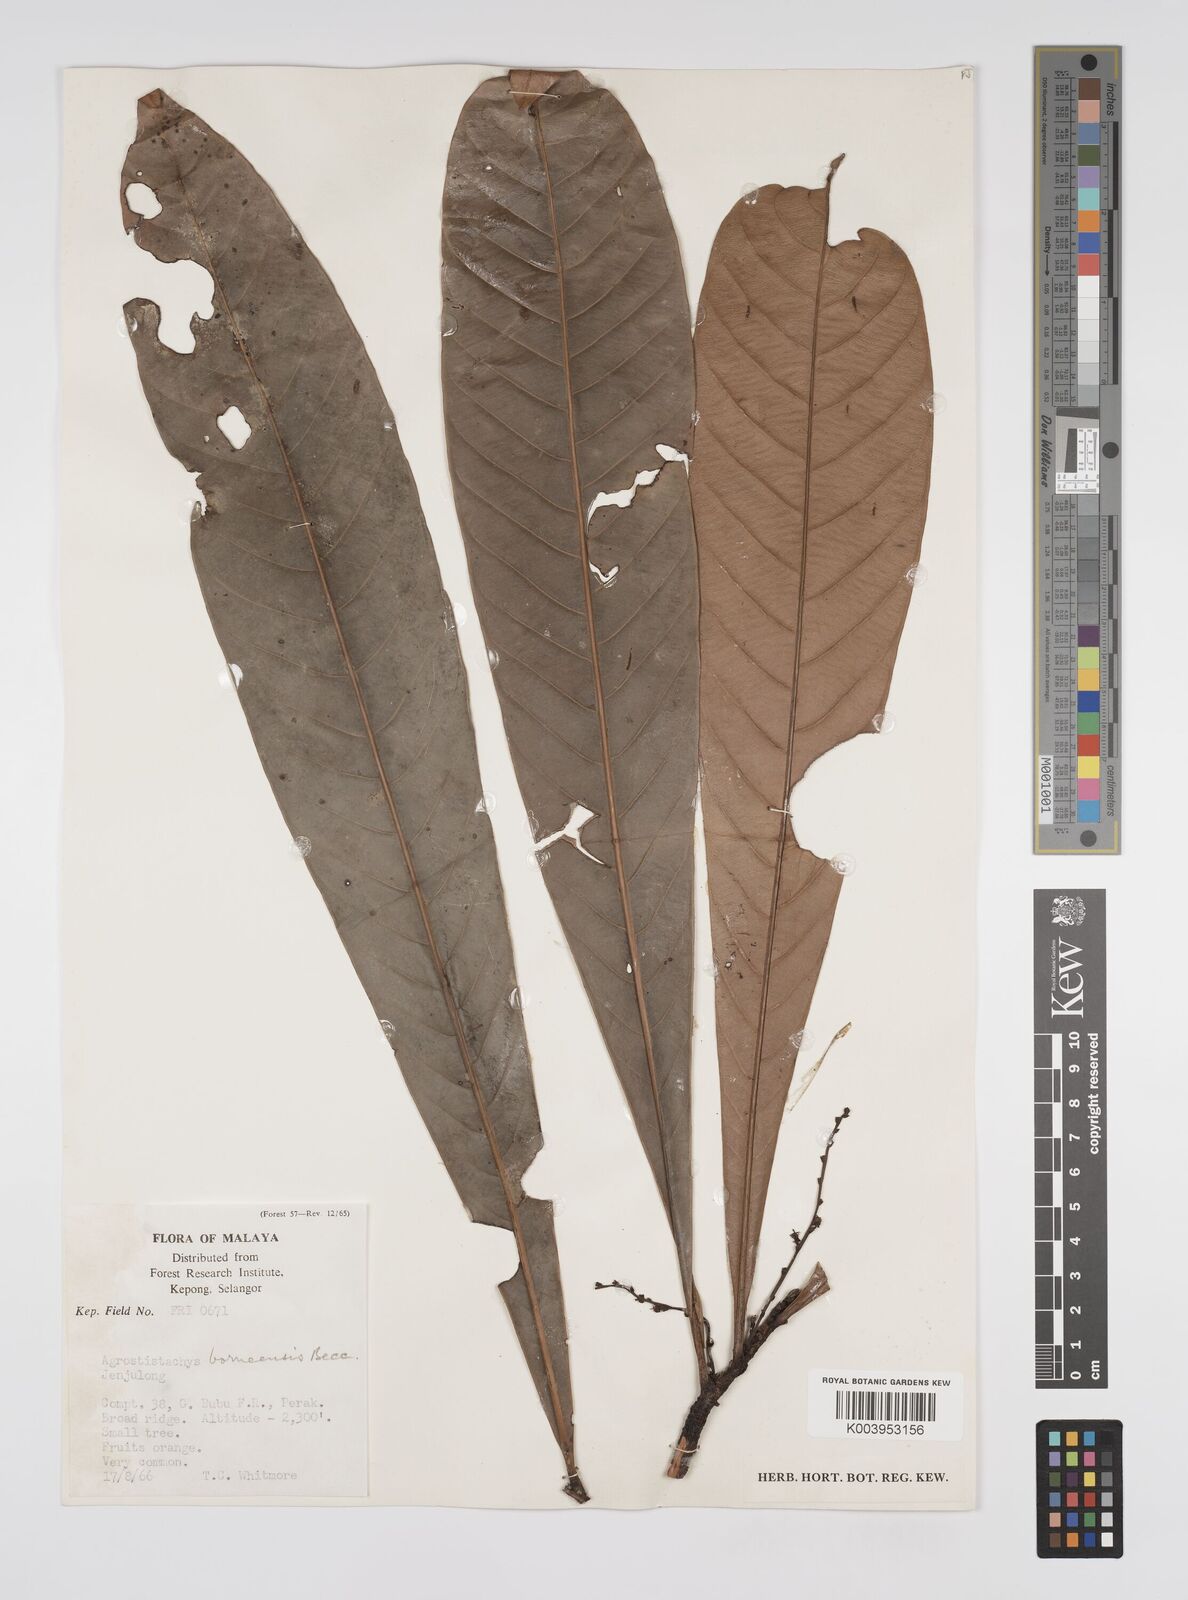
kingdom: Plantae
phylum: Tracheophyta
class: Magnoliopsida
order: Malpighiales
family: Euphorbiaceae
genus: Agrostistachys
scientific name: Agrostistachys borneensis
